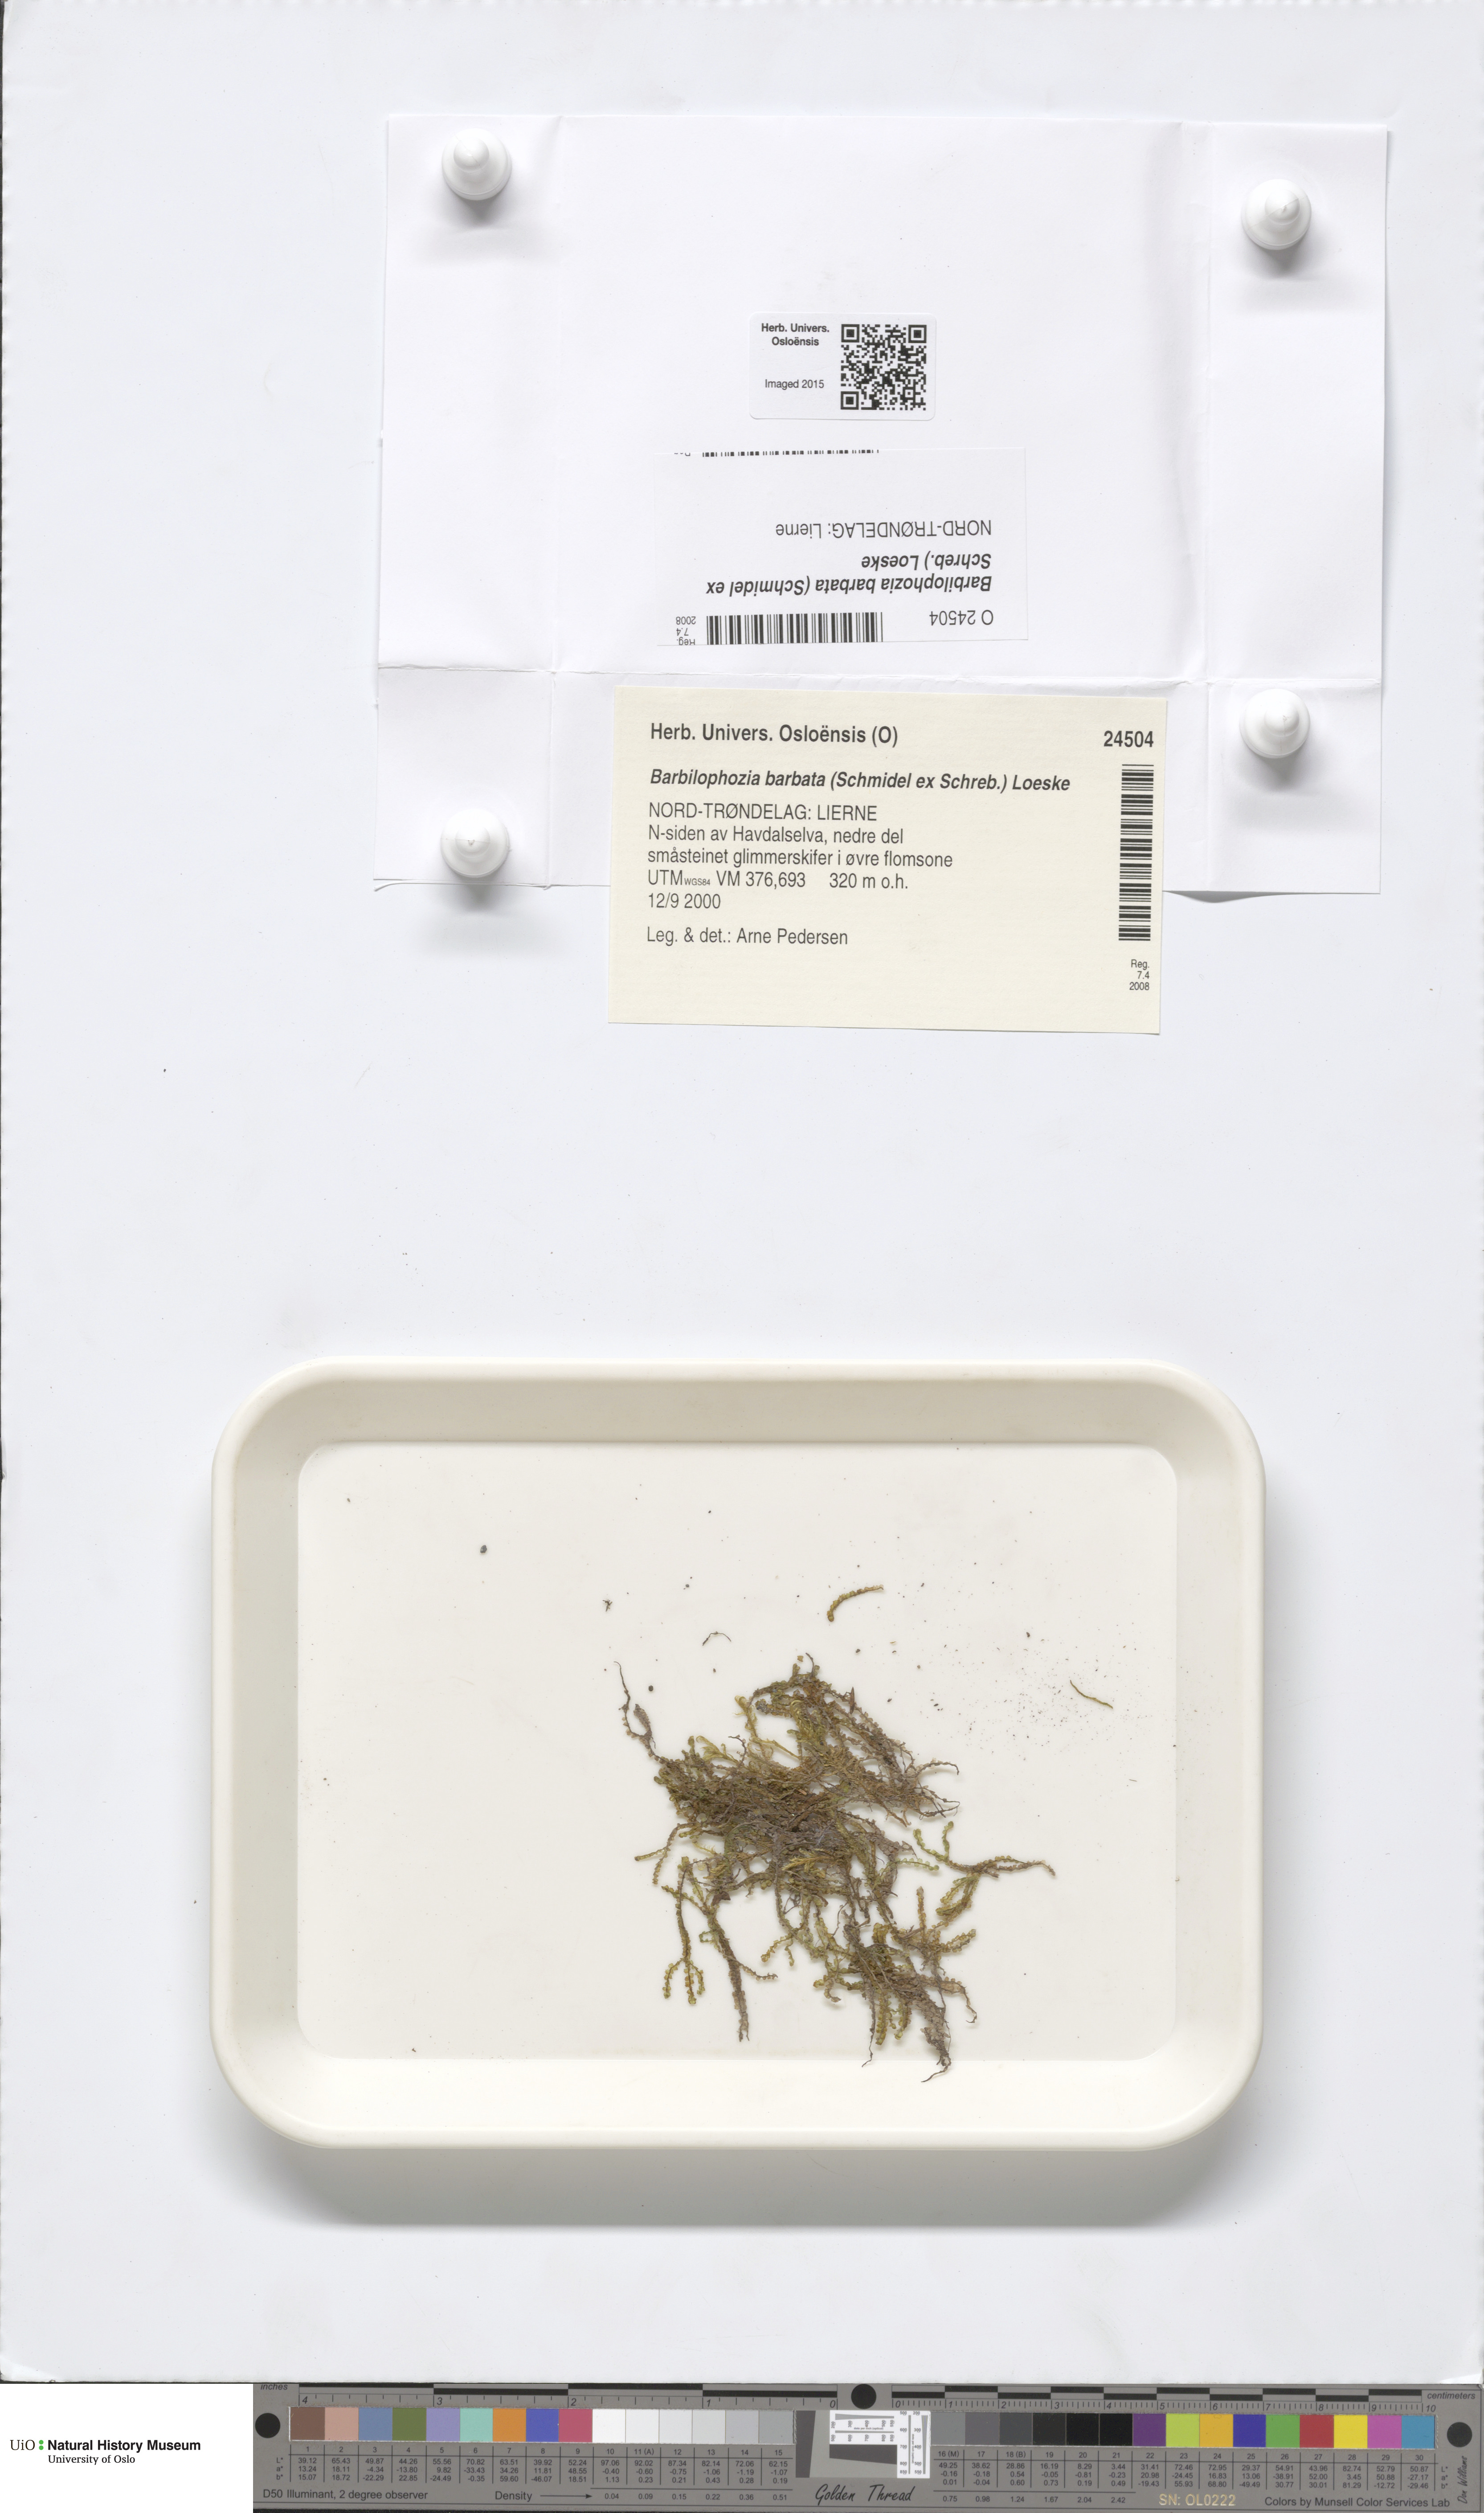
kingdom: Plantae
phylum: Marchantiophyta
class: Jungermanniopsida
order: Jungermanniales
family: Anastrophyllaceae
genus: Barbilophozia
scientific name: Barbilophozia barbata
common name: Bearded pawwort
